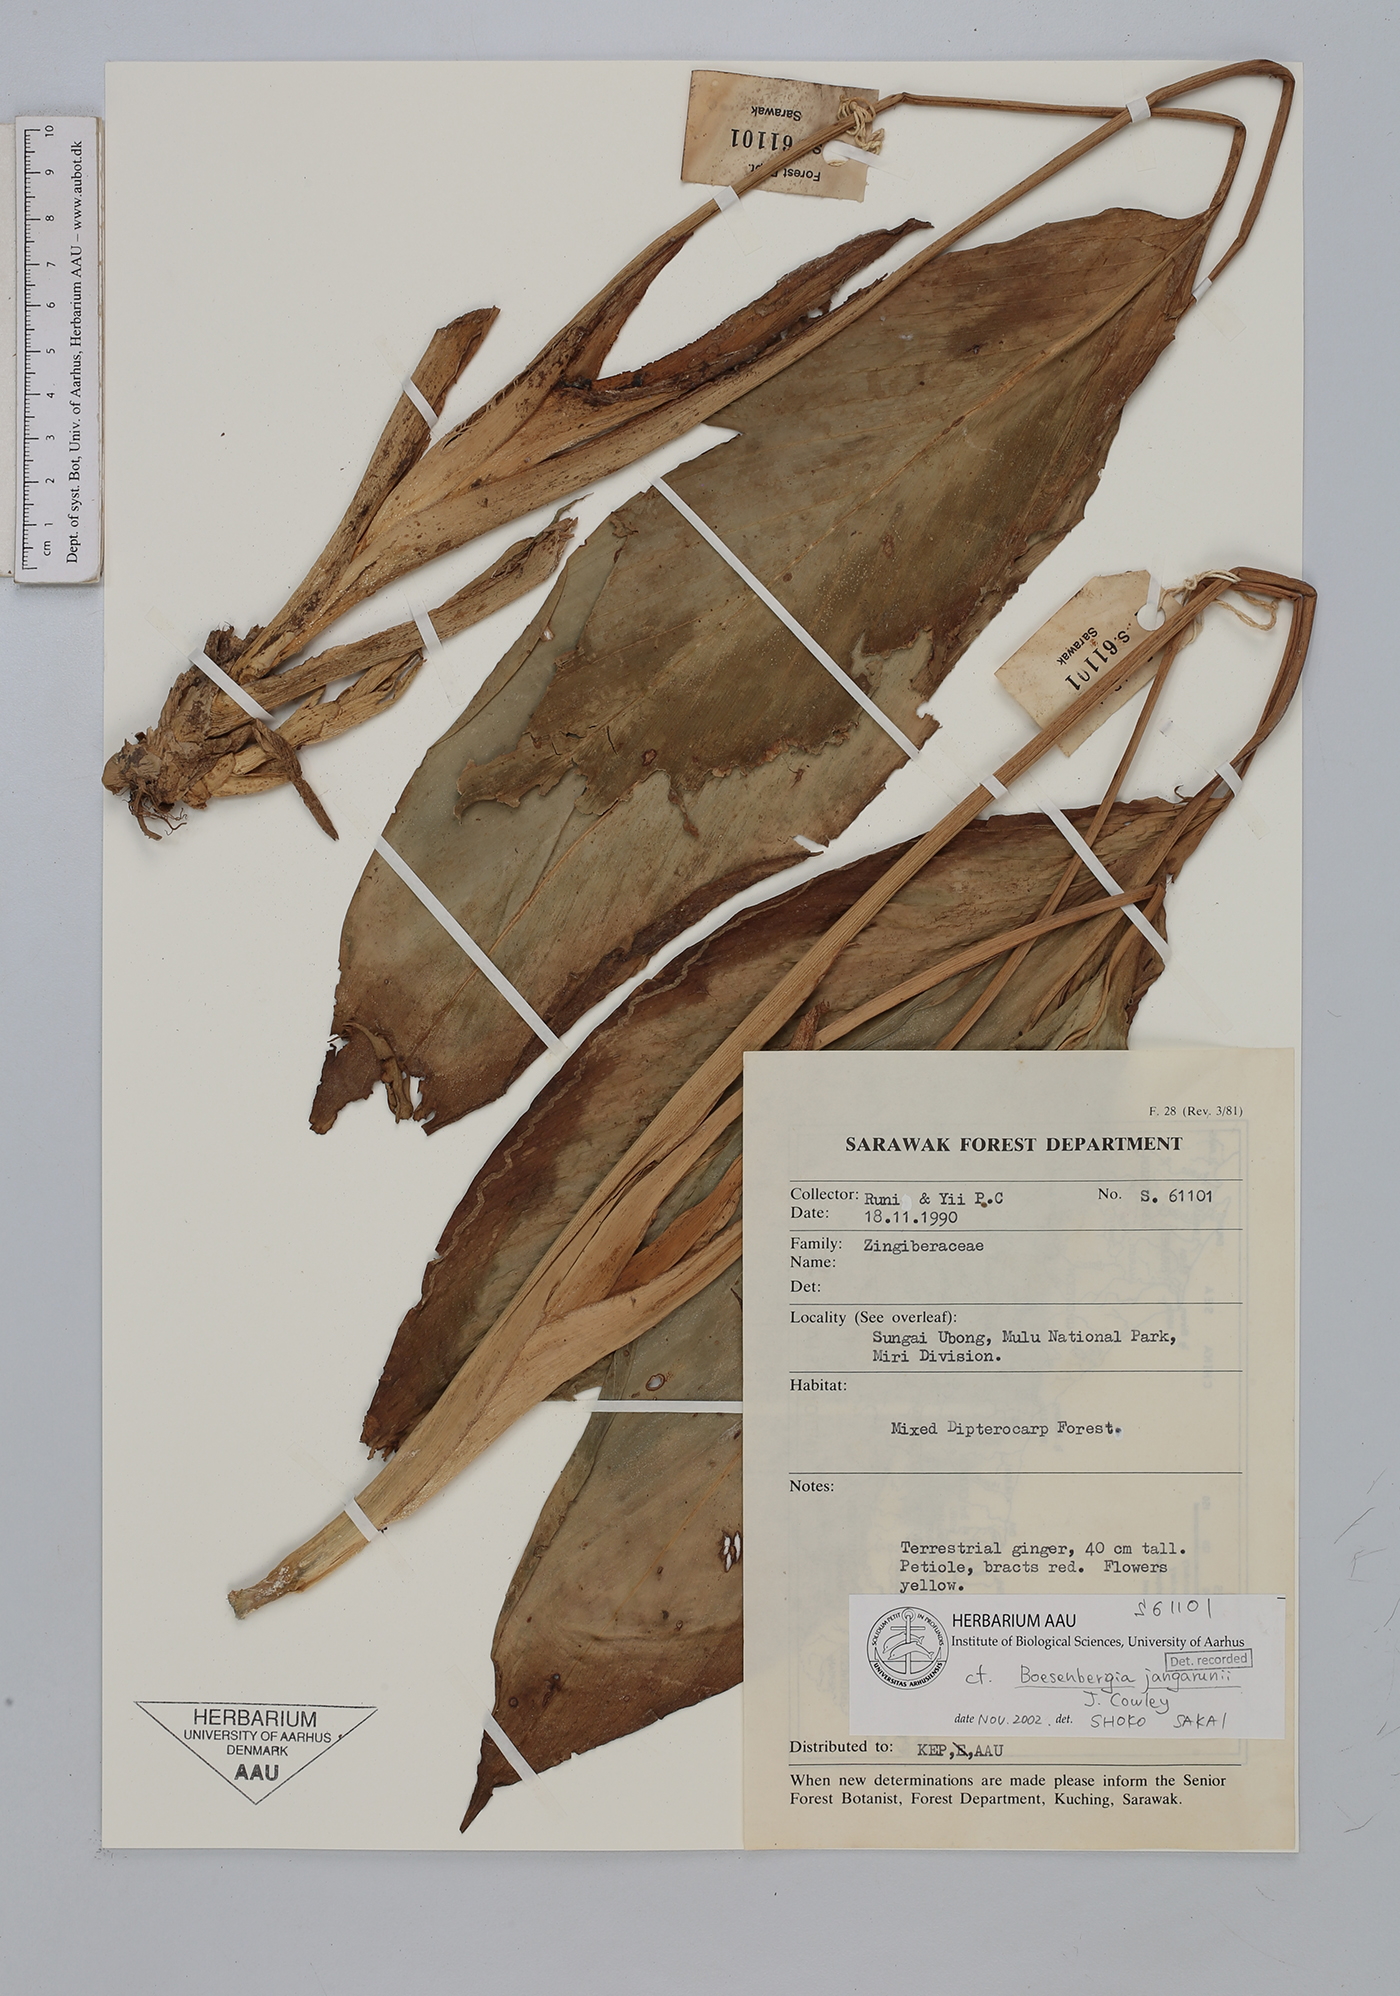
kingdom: Plantae
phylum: Tracheophyta
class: Liliopsida
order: Zingiberales
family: Zingiberaceae
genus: Boesenbergia
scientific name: Boesenbergia jangarunii
